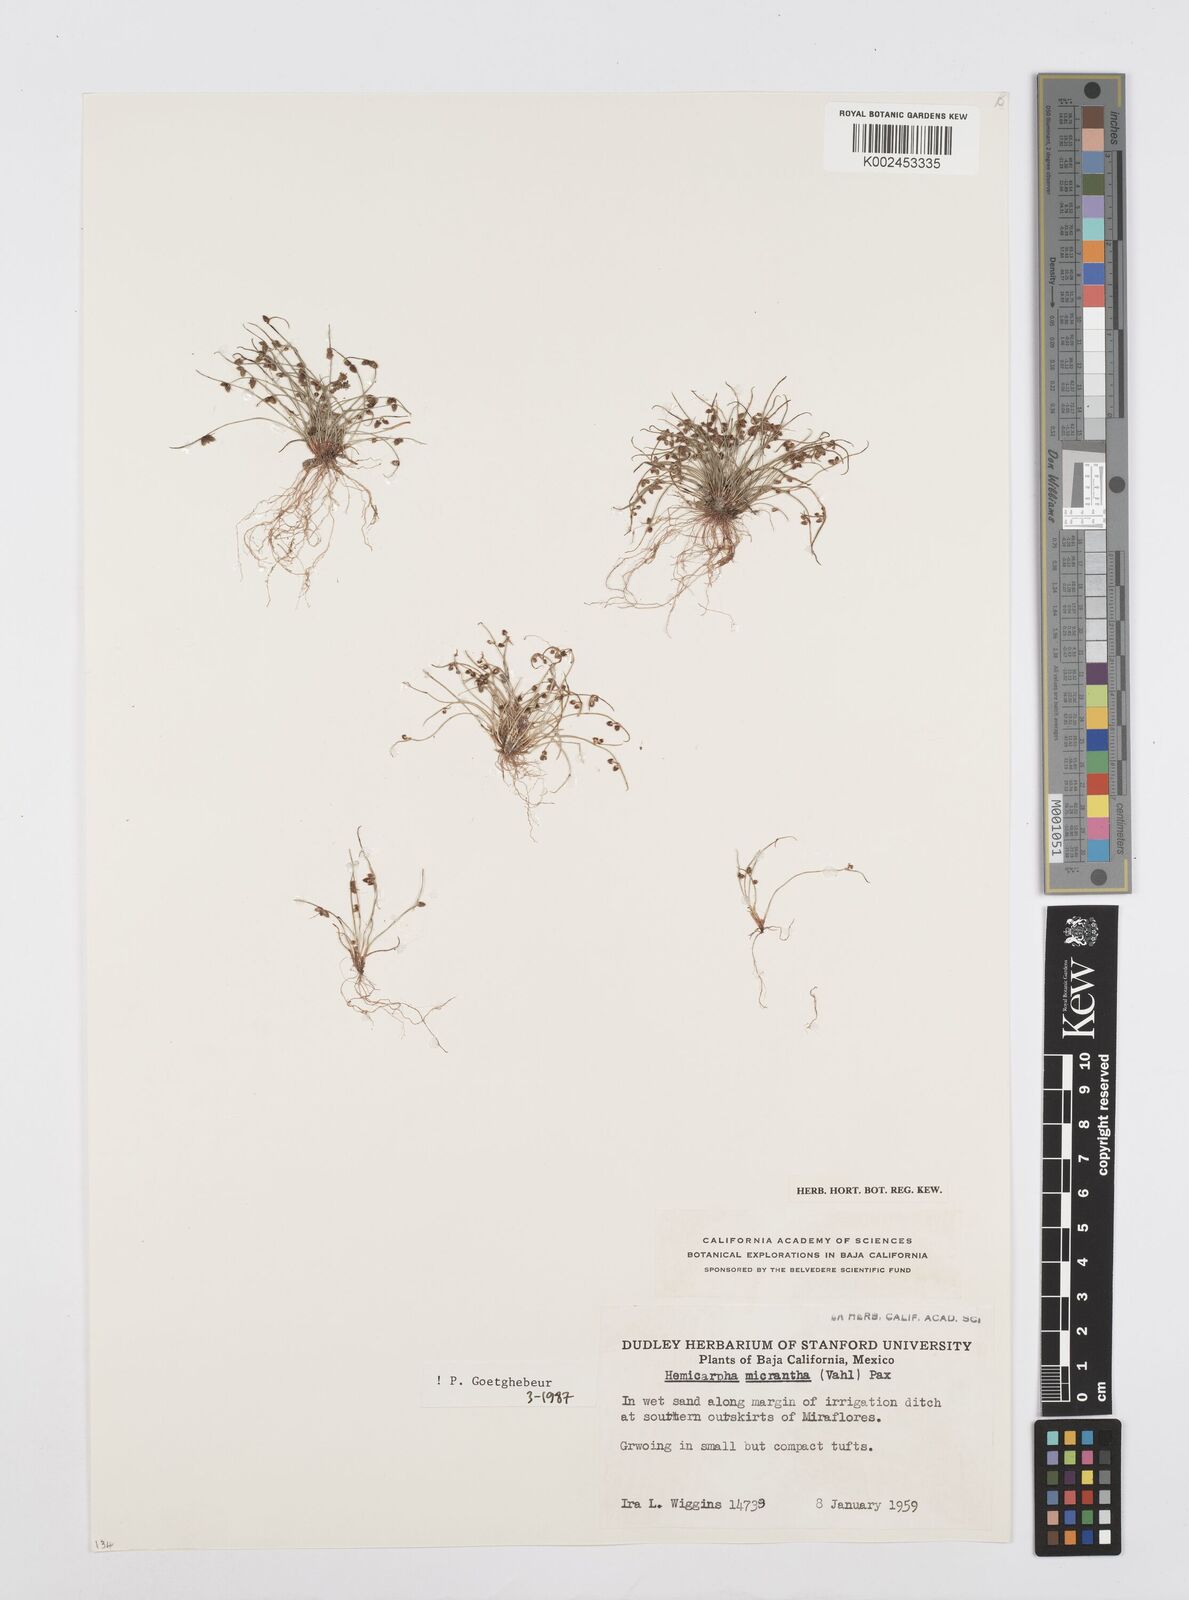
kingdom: Plantae
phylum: Tracheophyta
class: Liliopsida
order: Poales
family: Cyperaceae
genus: Cyperus
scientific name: Cyperus
